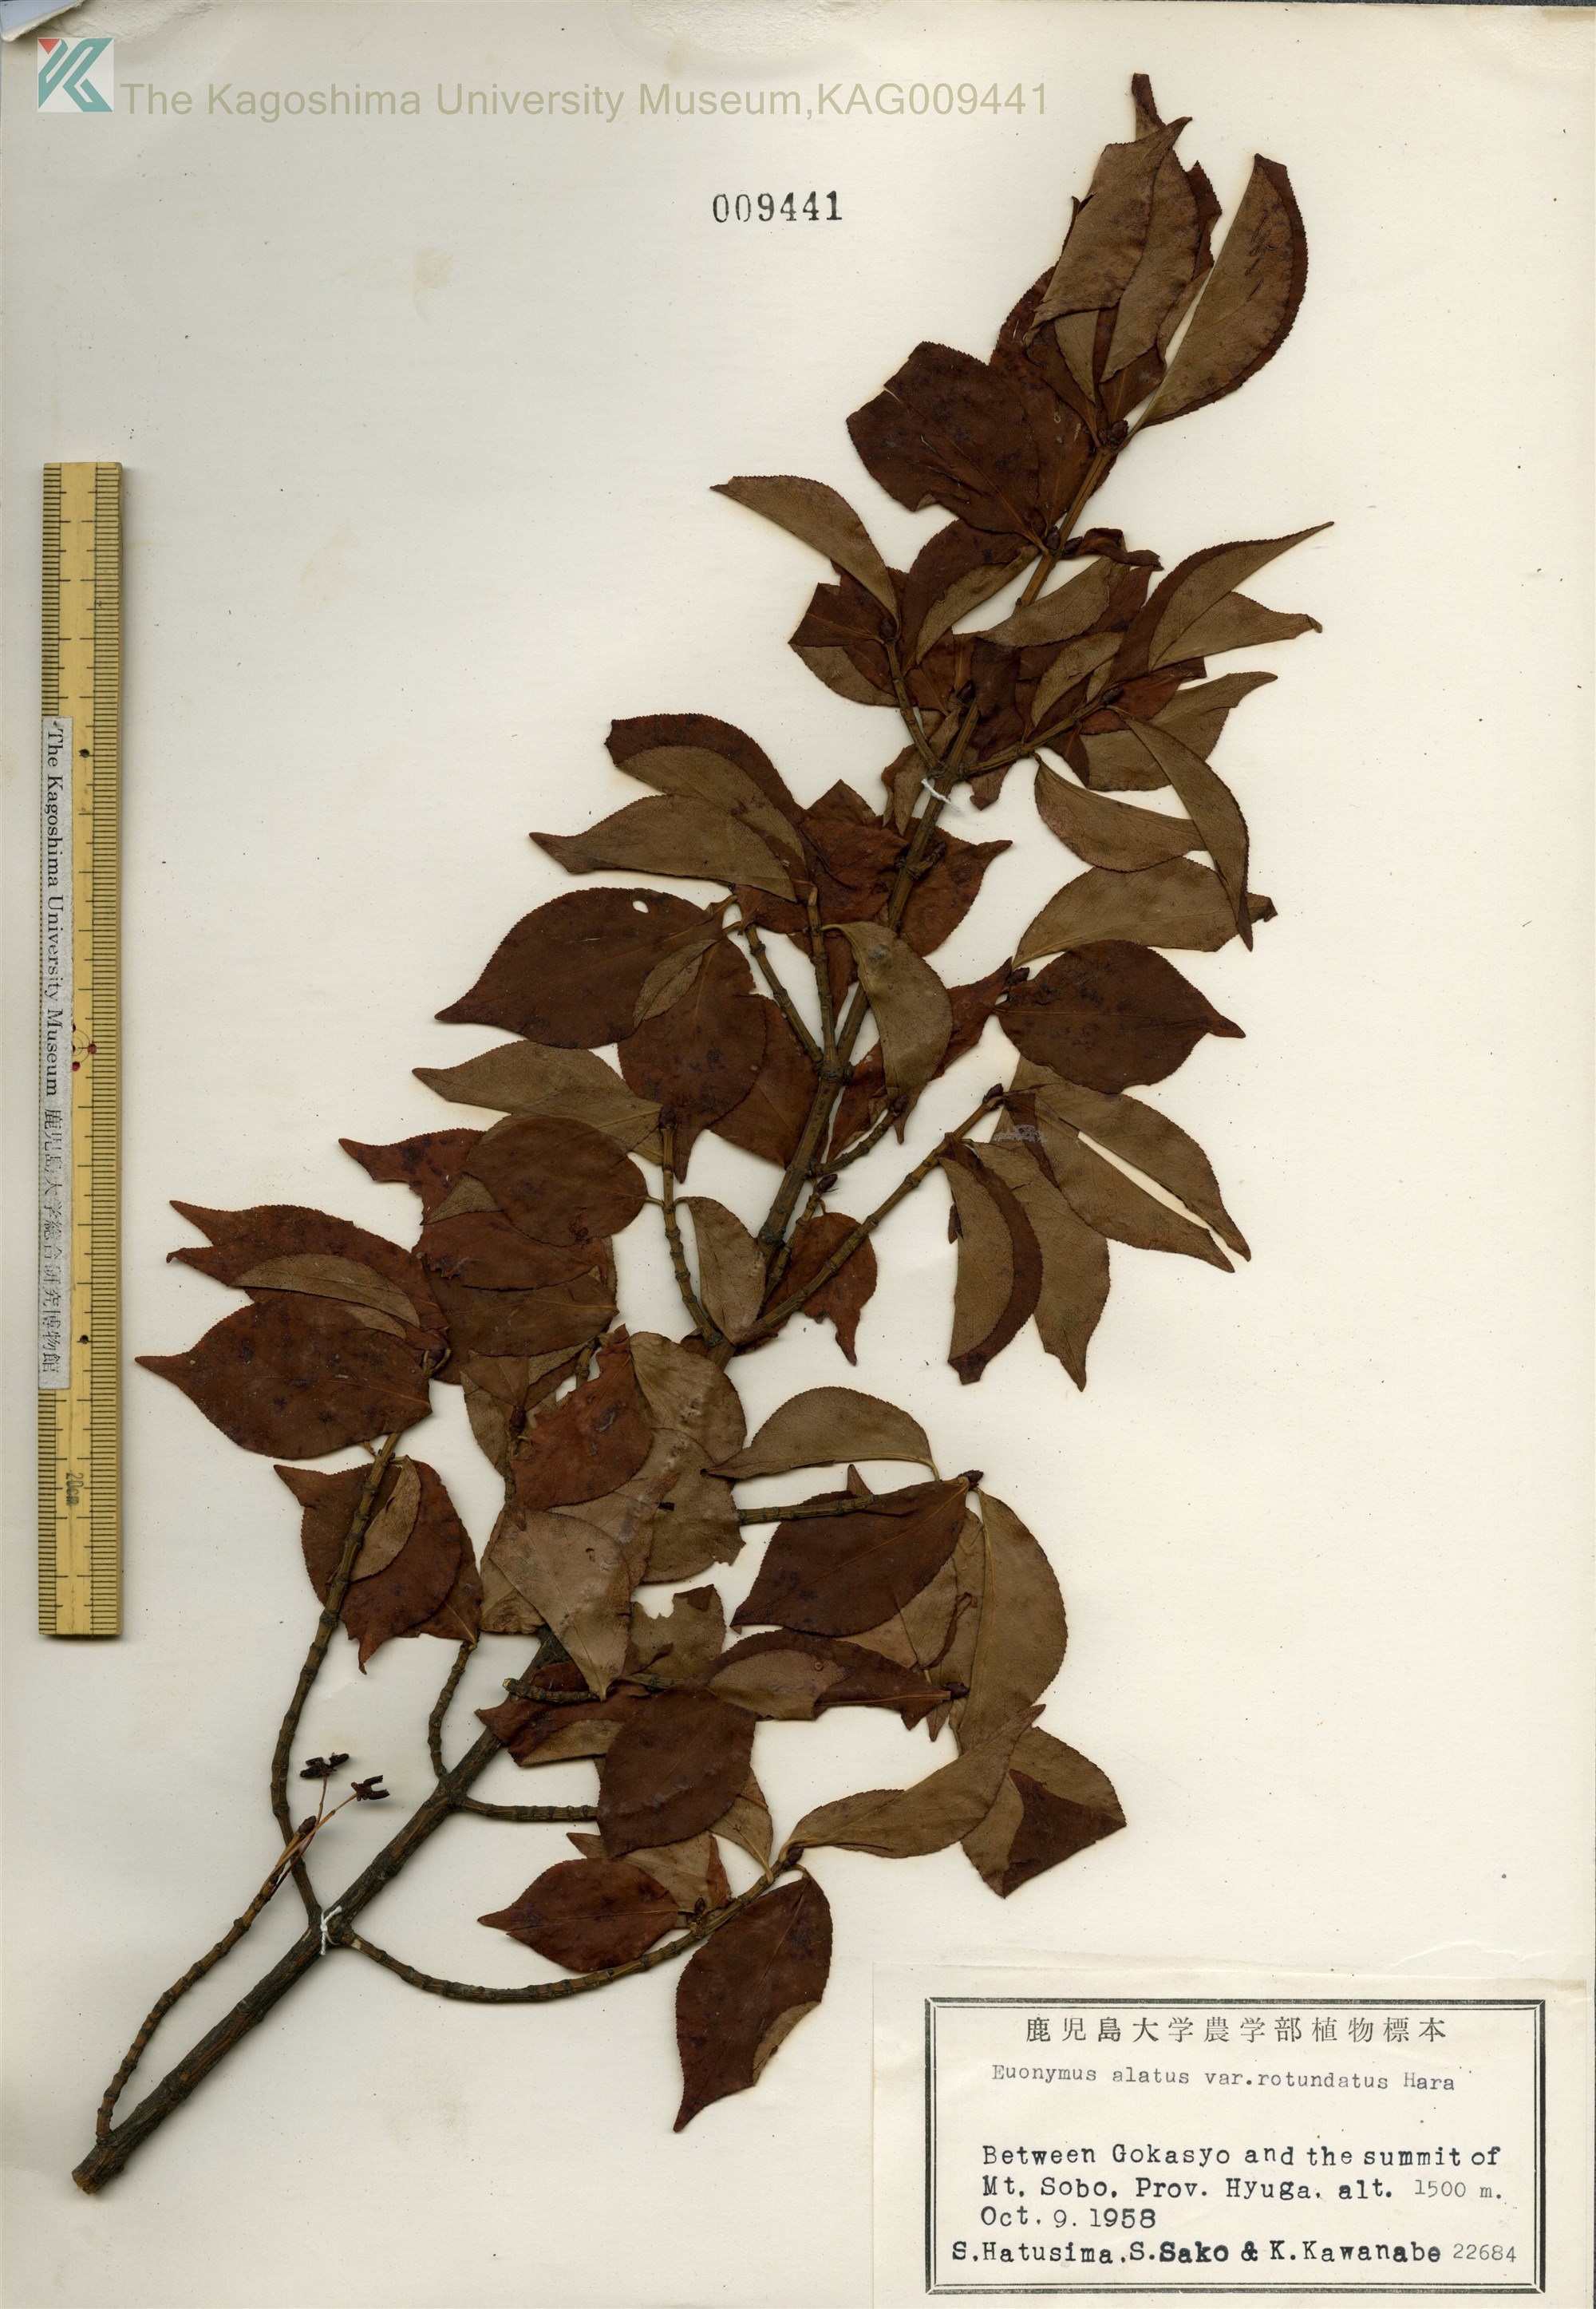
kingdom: Plantae
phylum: Tracheophyta
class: Magnoliopsida
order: Celastrales
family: Celastraceae
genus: Euonymus
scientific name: Euonymus alatus
